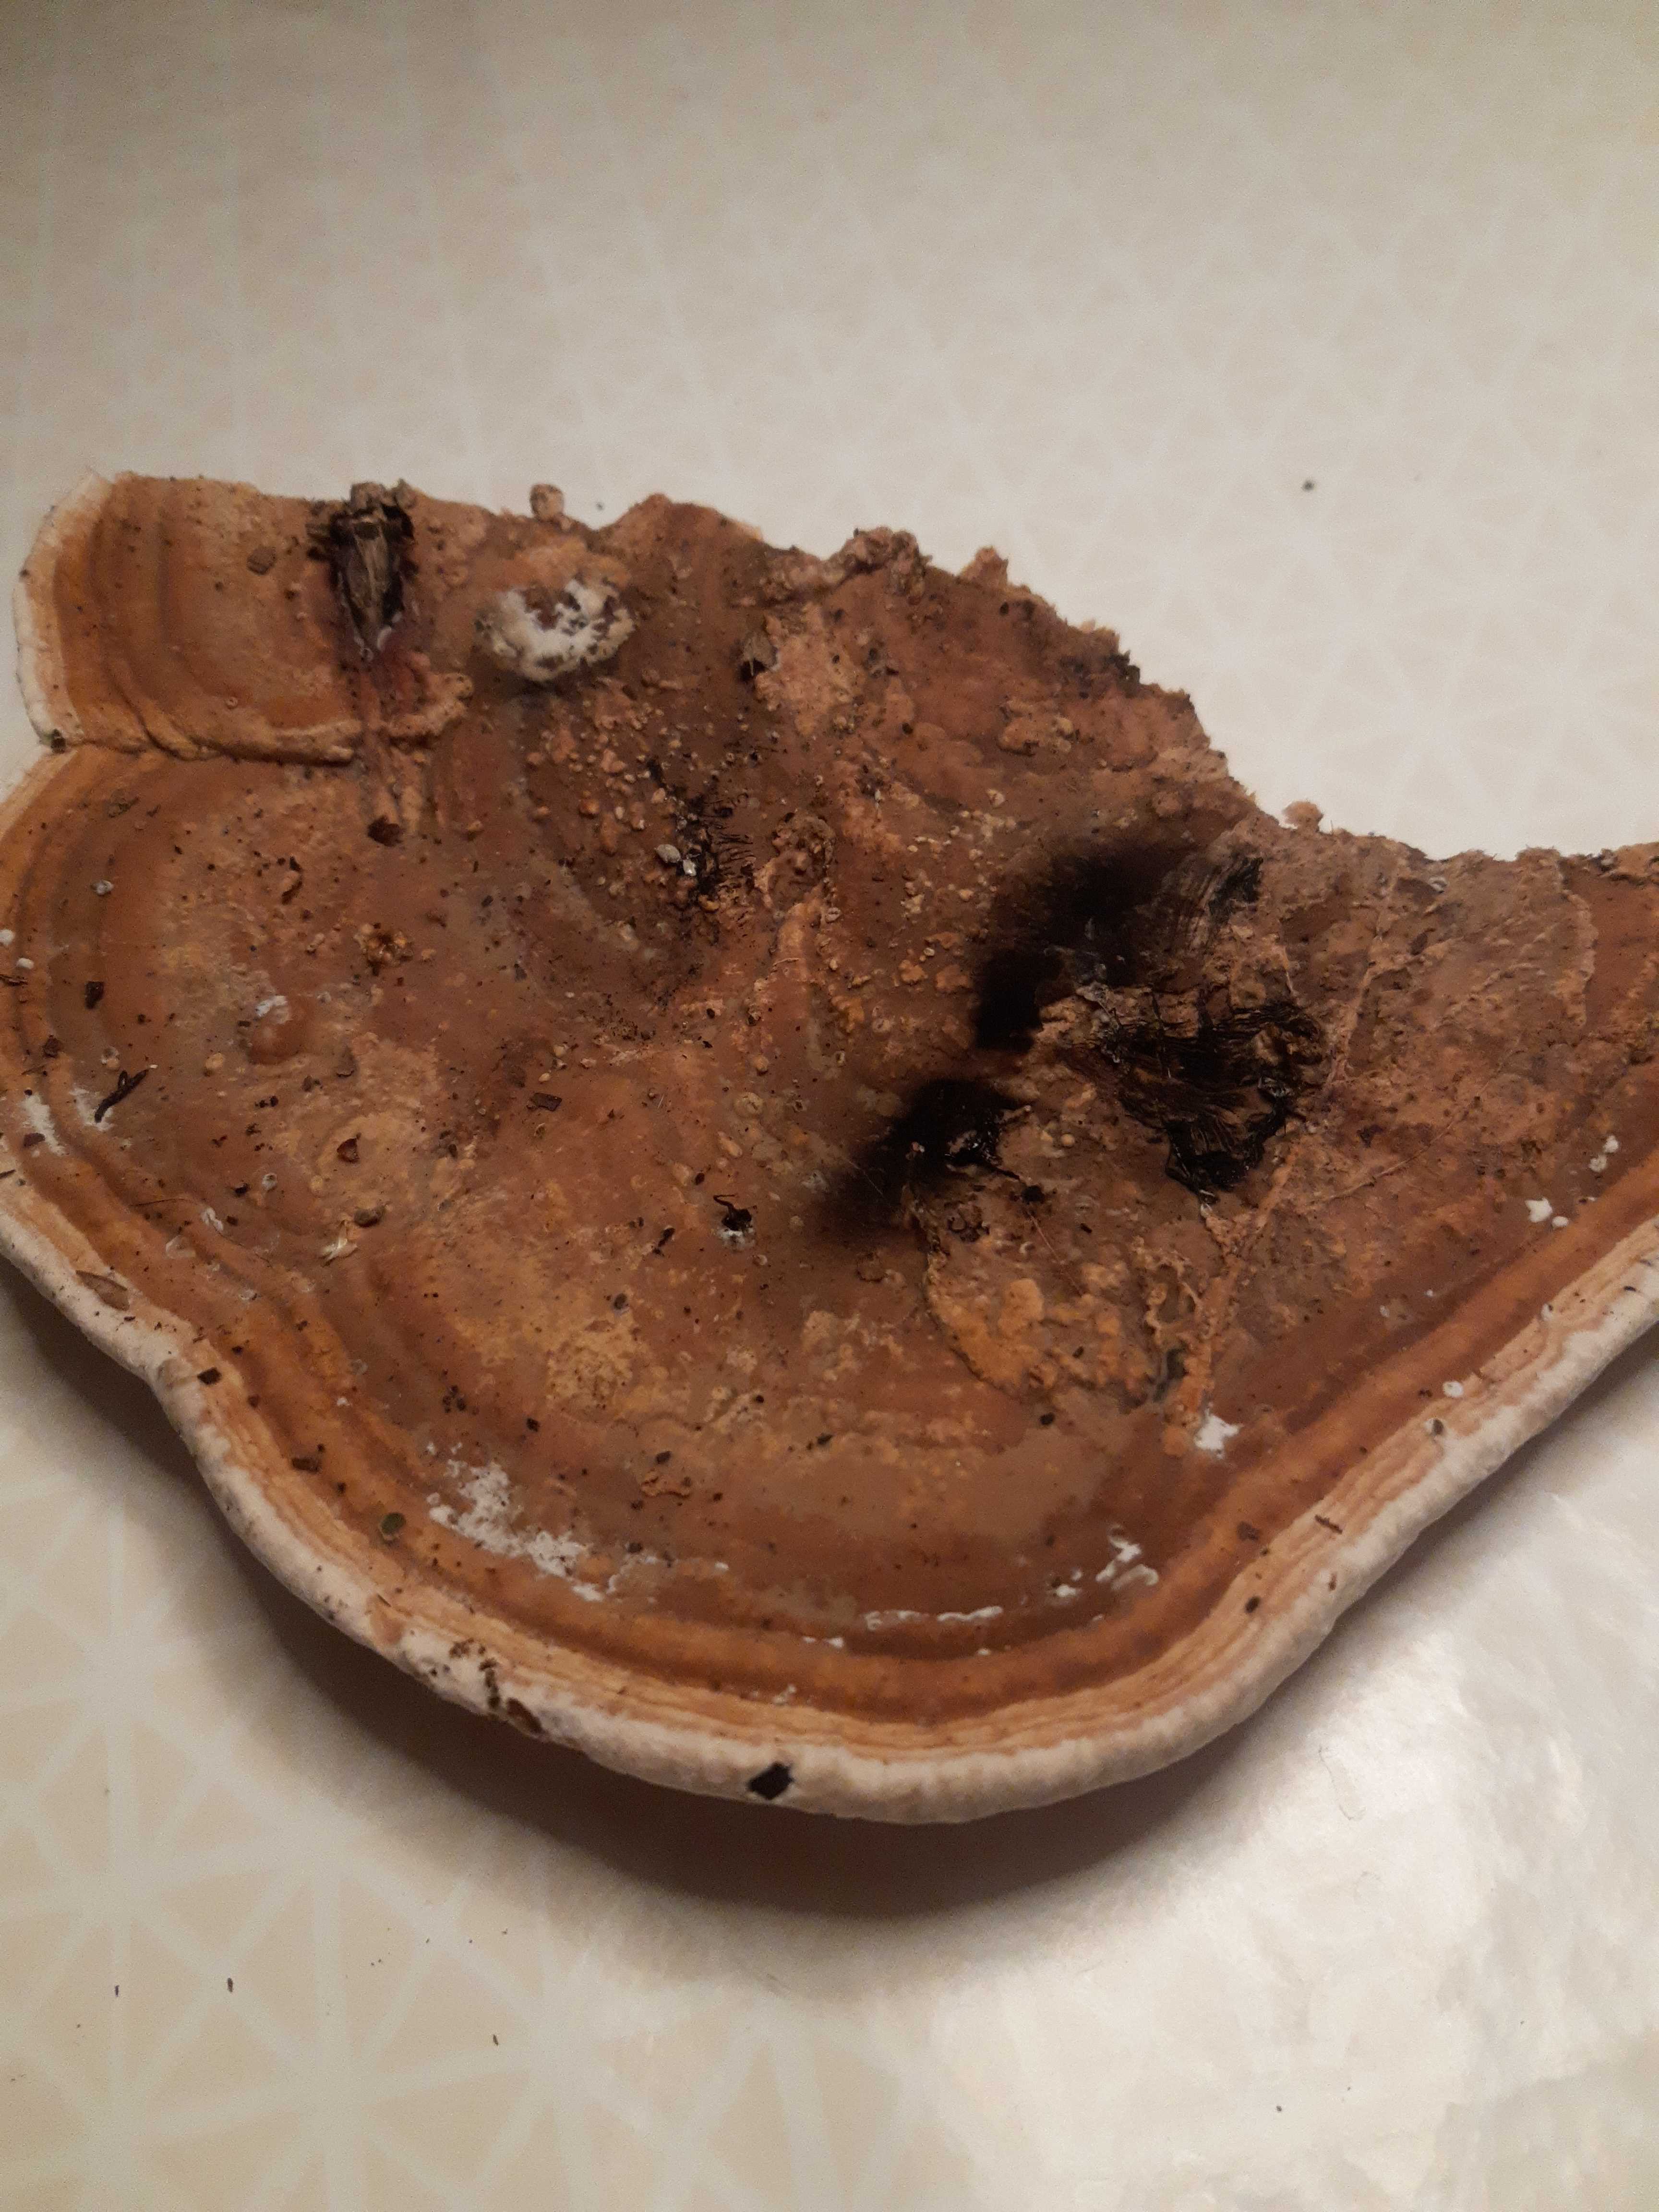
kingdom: Fungi
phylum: Basidiomycota
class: Agaricomycetes
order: Polyporales
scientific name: Polyporales
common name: poresvampordenen
